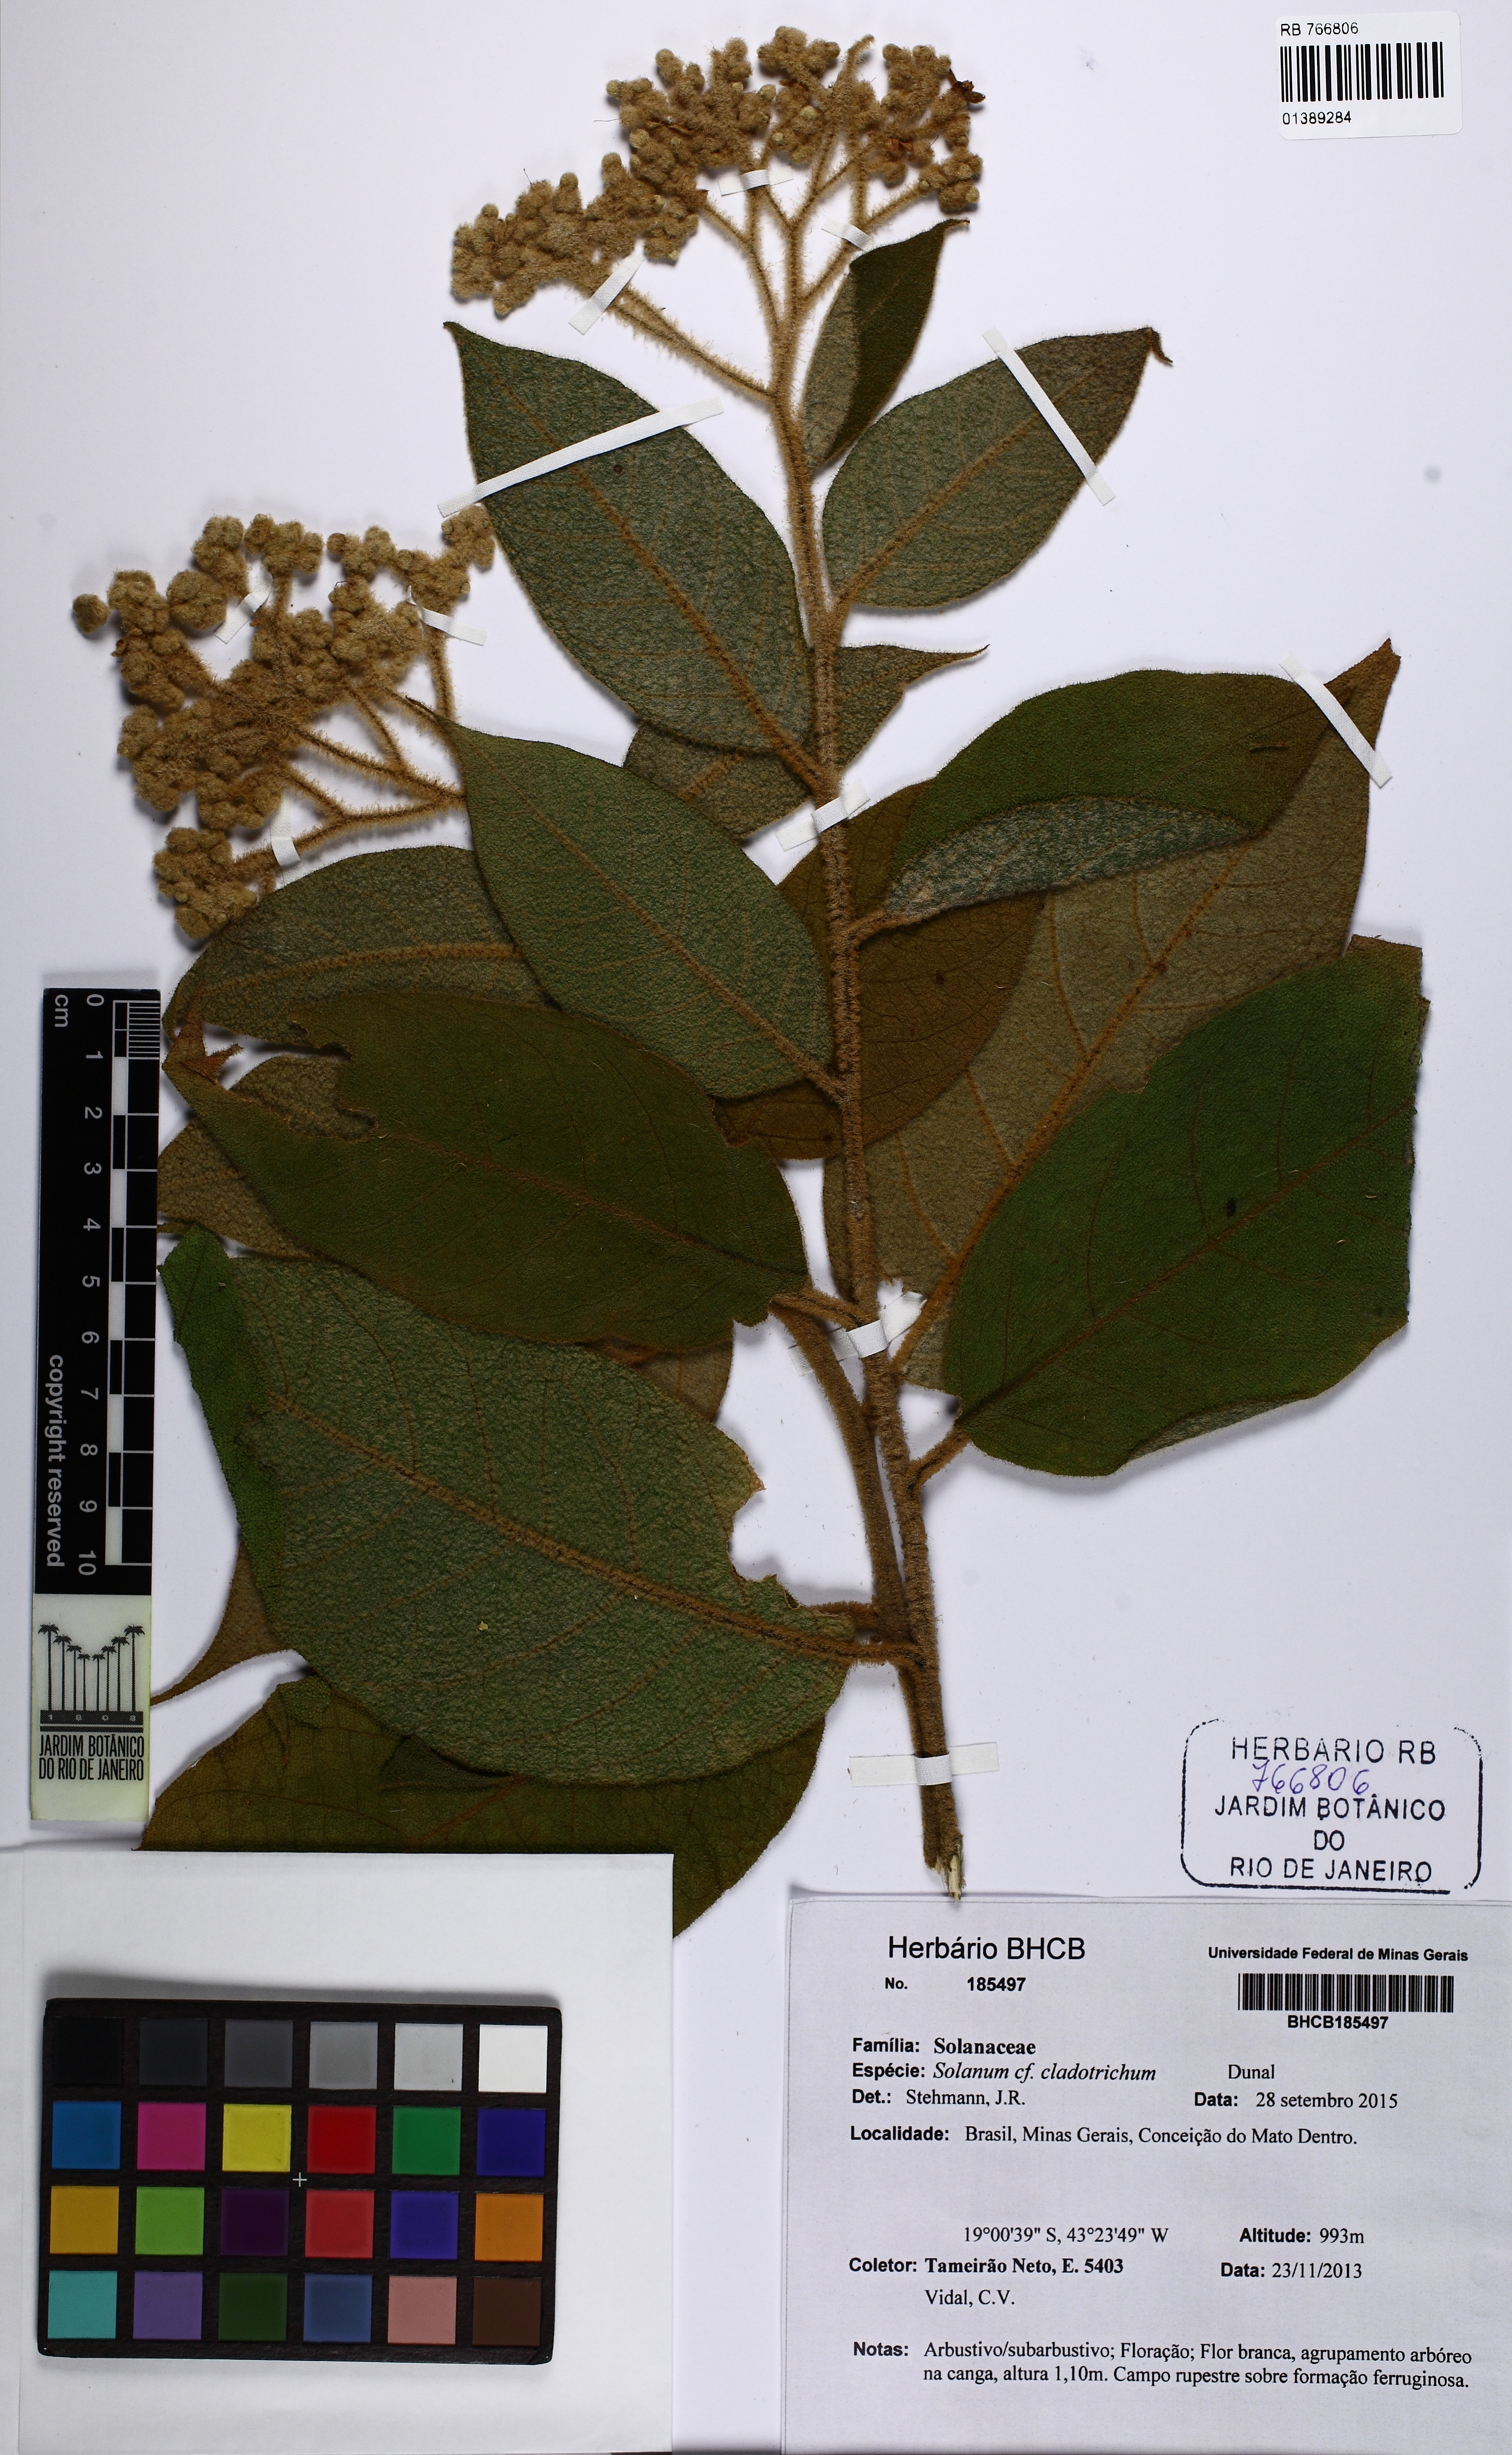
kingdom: Plantae
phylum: Tracheophyta
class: Magnoliopsida
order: Solanales
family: Solanaceae
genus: Solanum
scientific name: Solanum jussiaei
